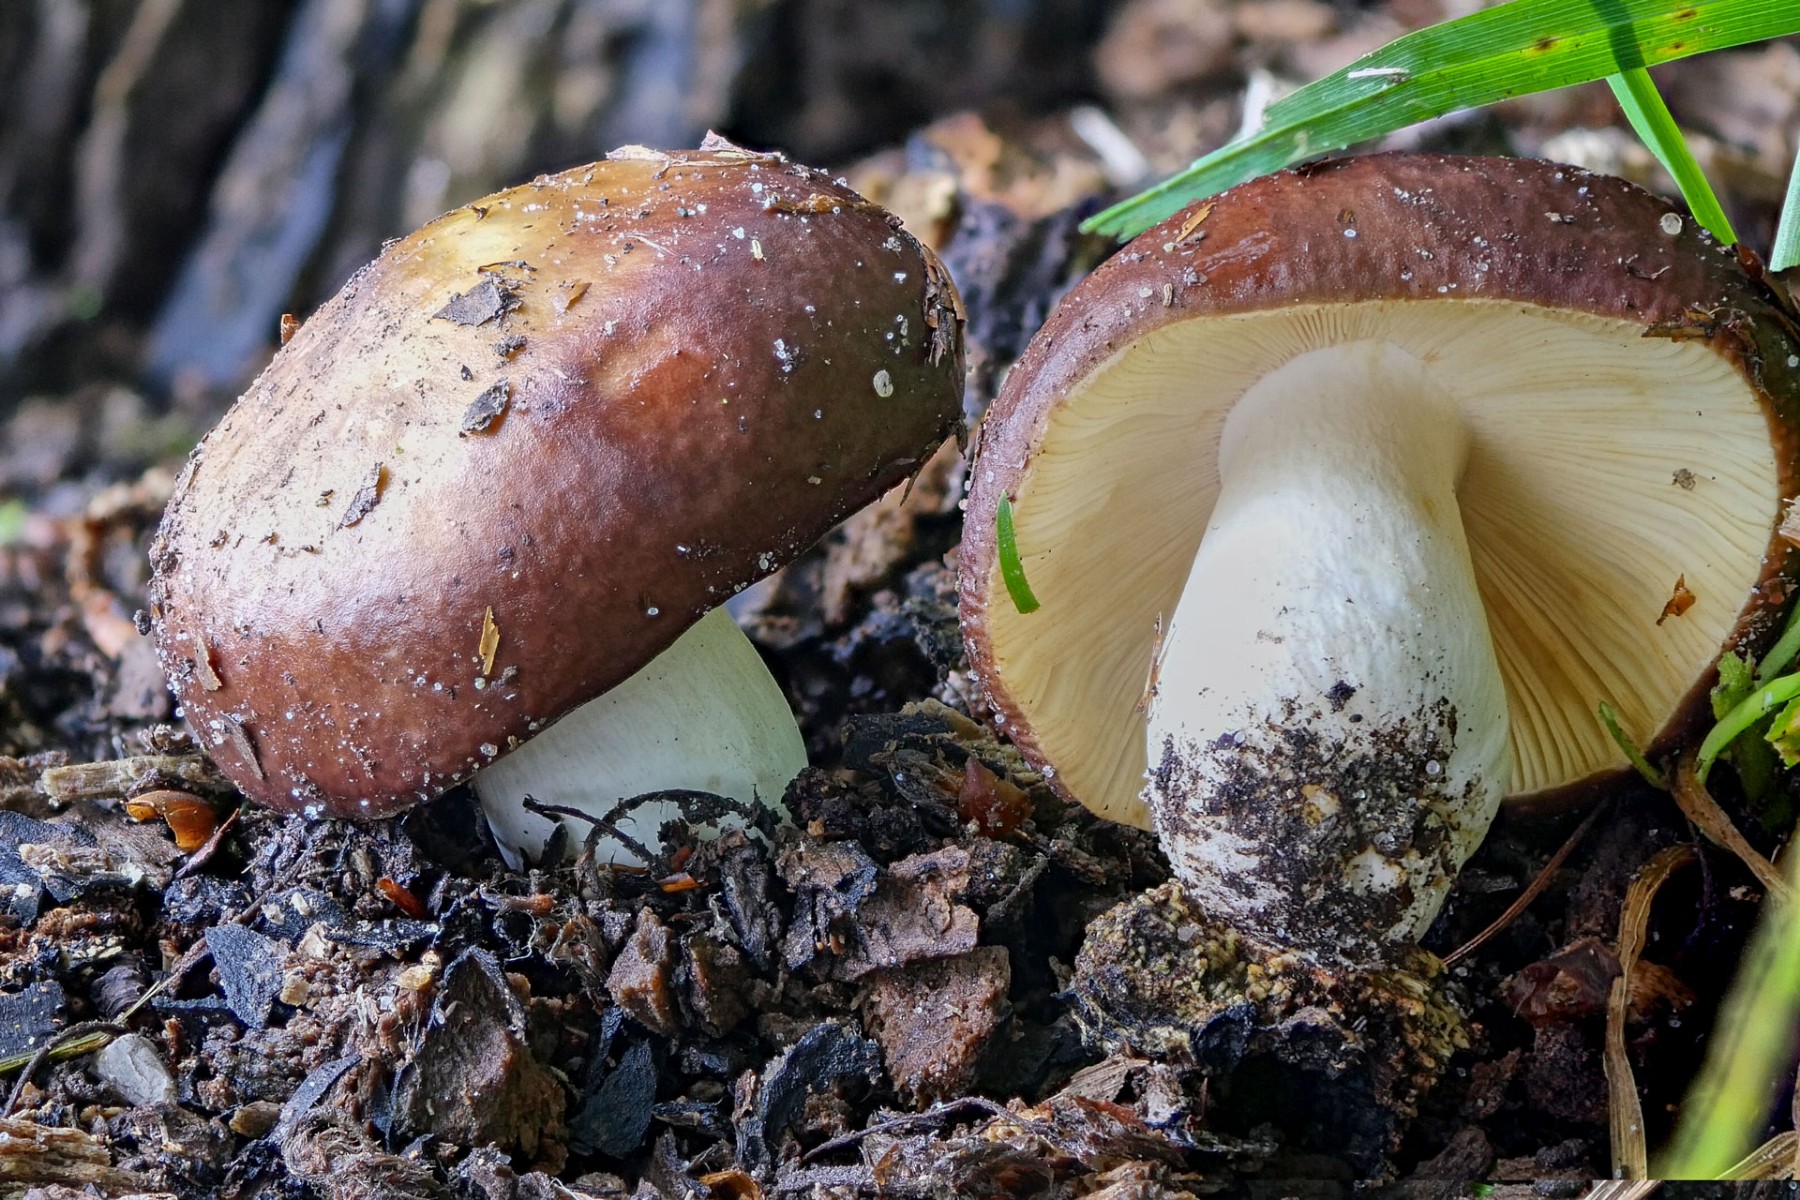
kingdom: Fungi
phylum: Basidiomycota
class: Agaricomycetes
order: Russulales
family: Russulaceae
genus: Russula
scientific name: Russula romellii
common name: romells skørhat
